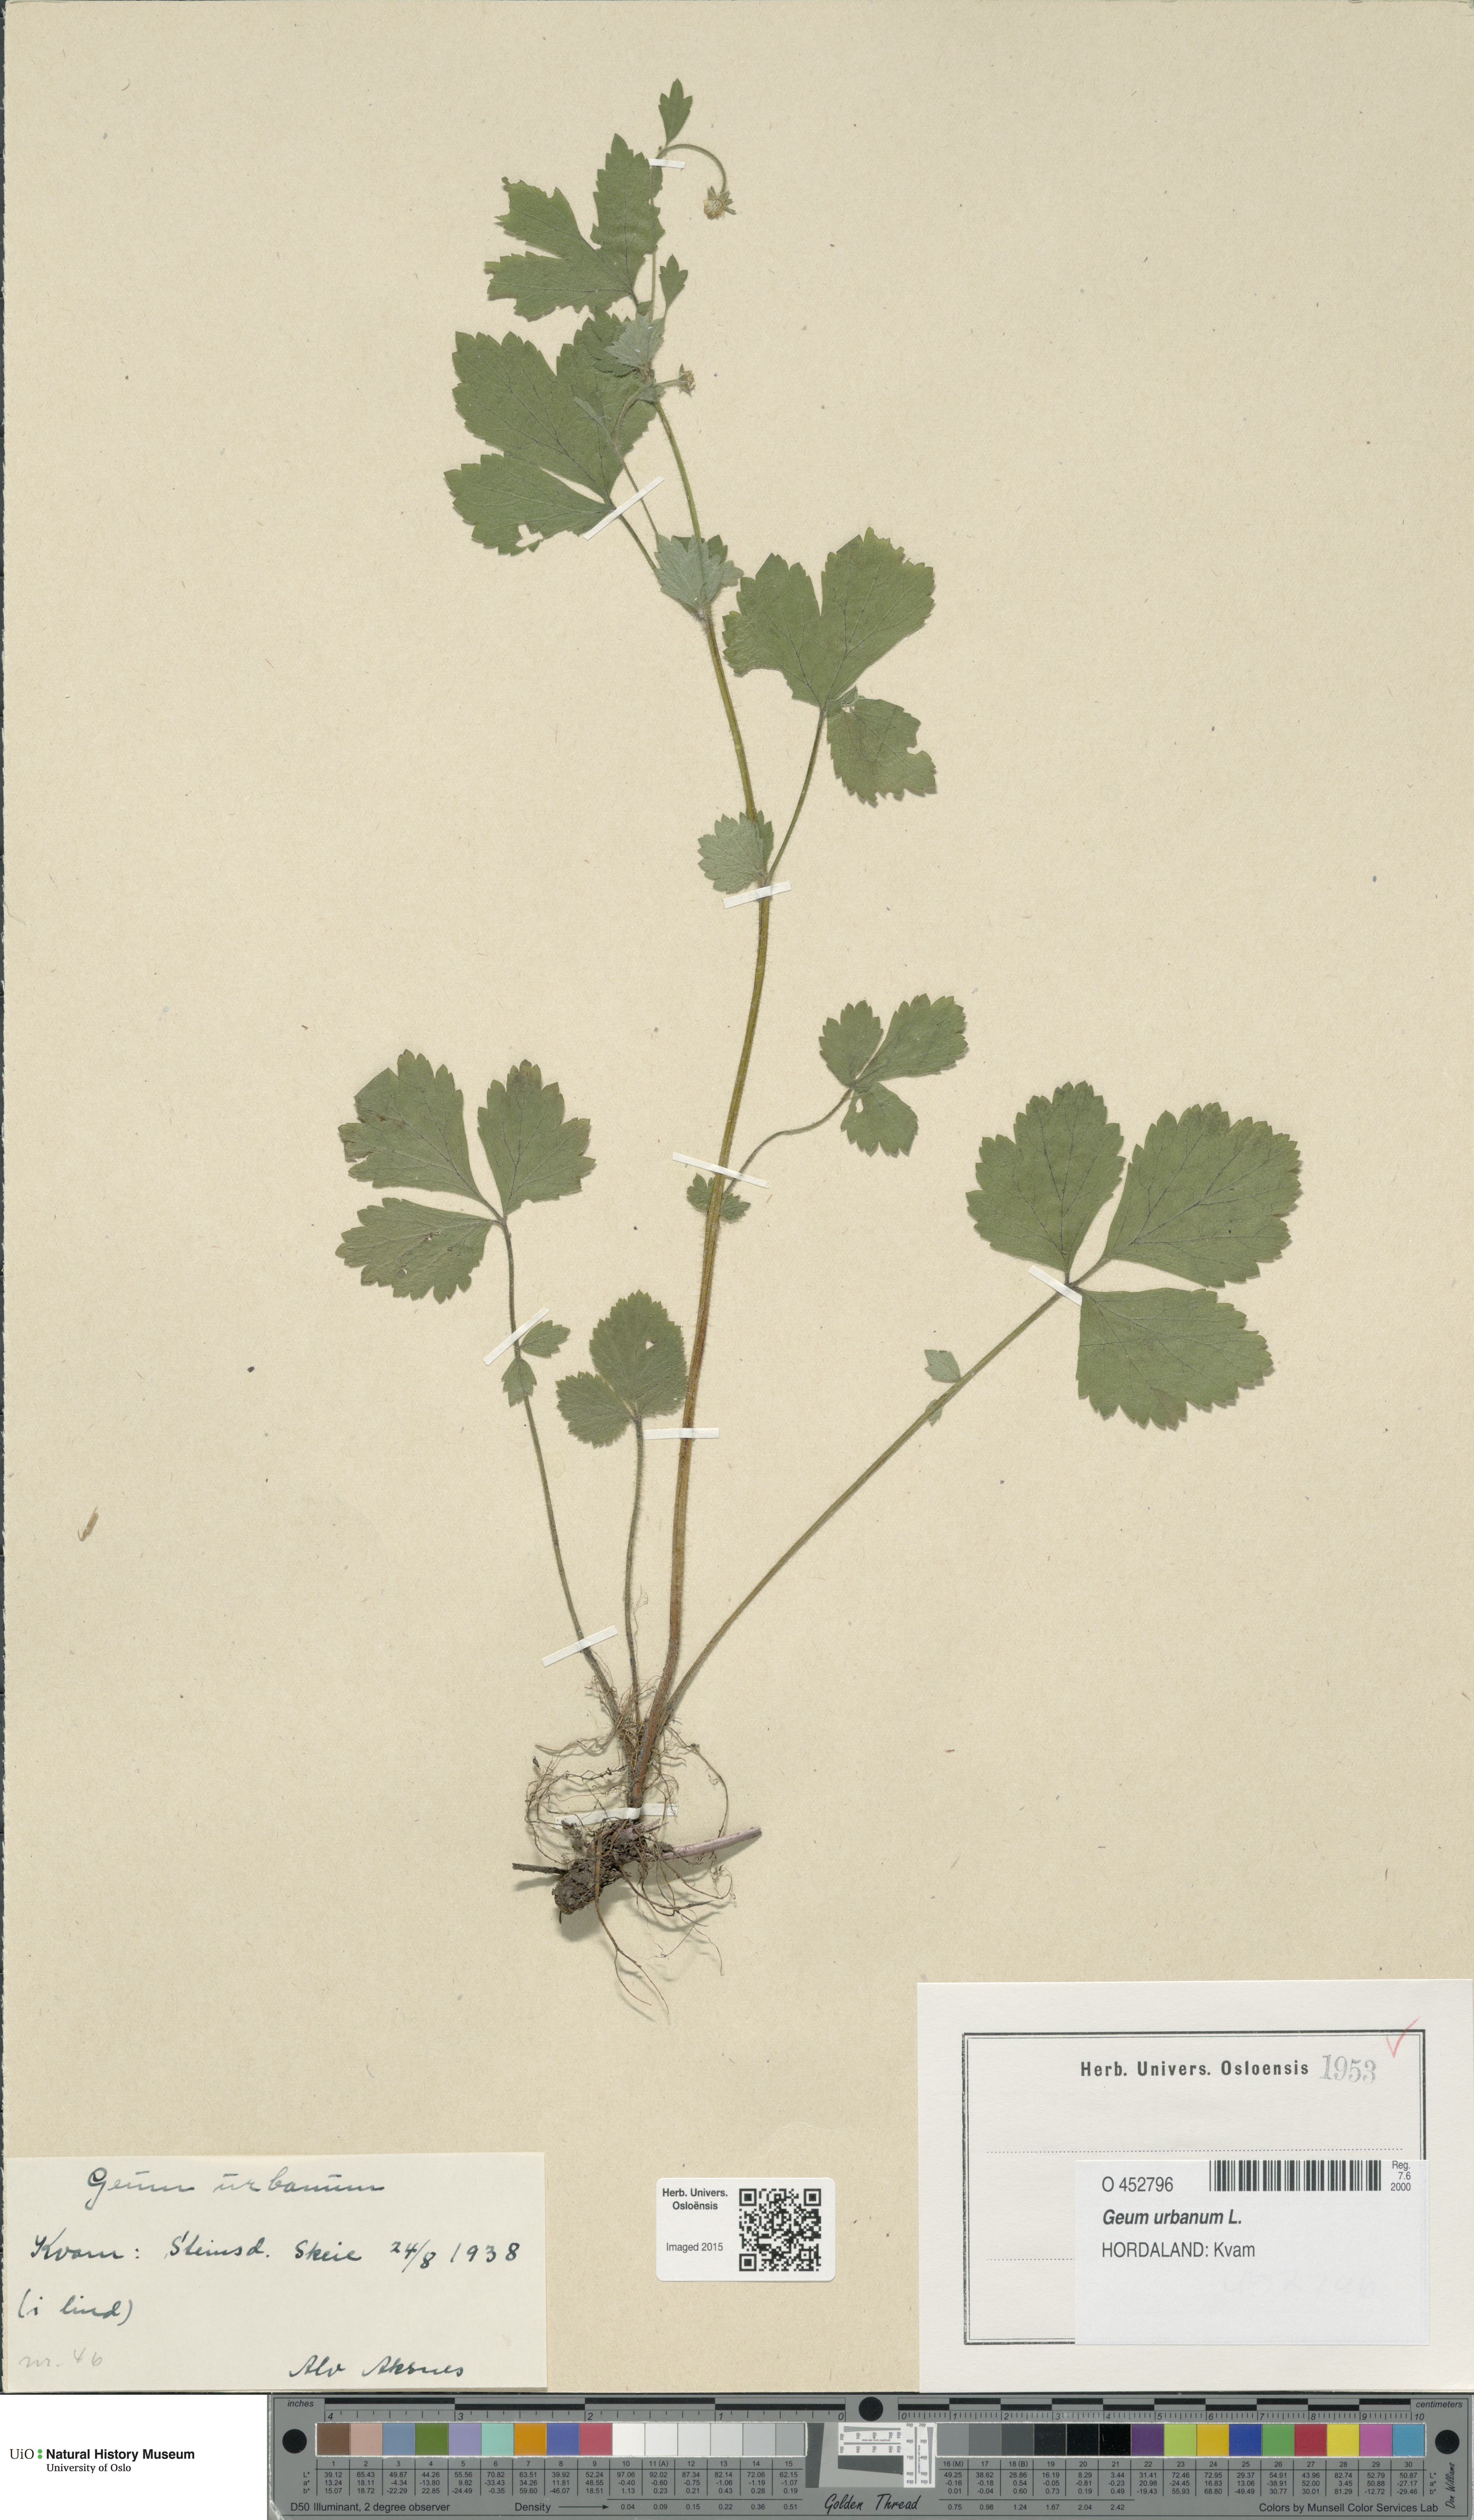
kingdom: Plantae
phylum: Tracheophyta
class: Magnoliopsida
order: Rosales
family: Rosaceae
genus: Geum
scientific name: Geum urbanum
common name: Wood avens
